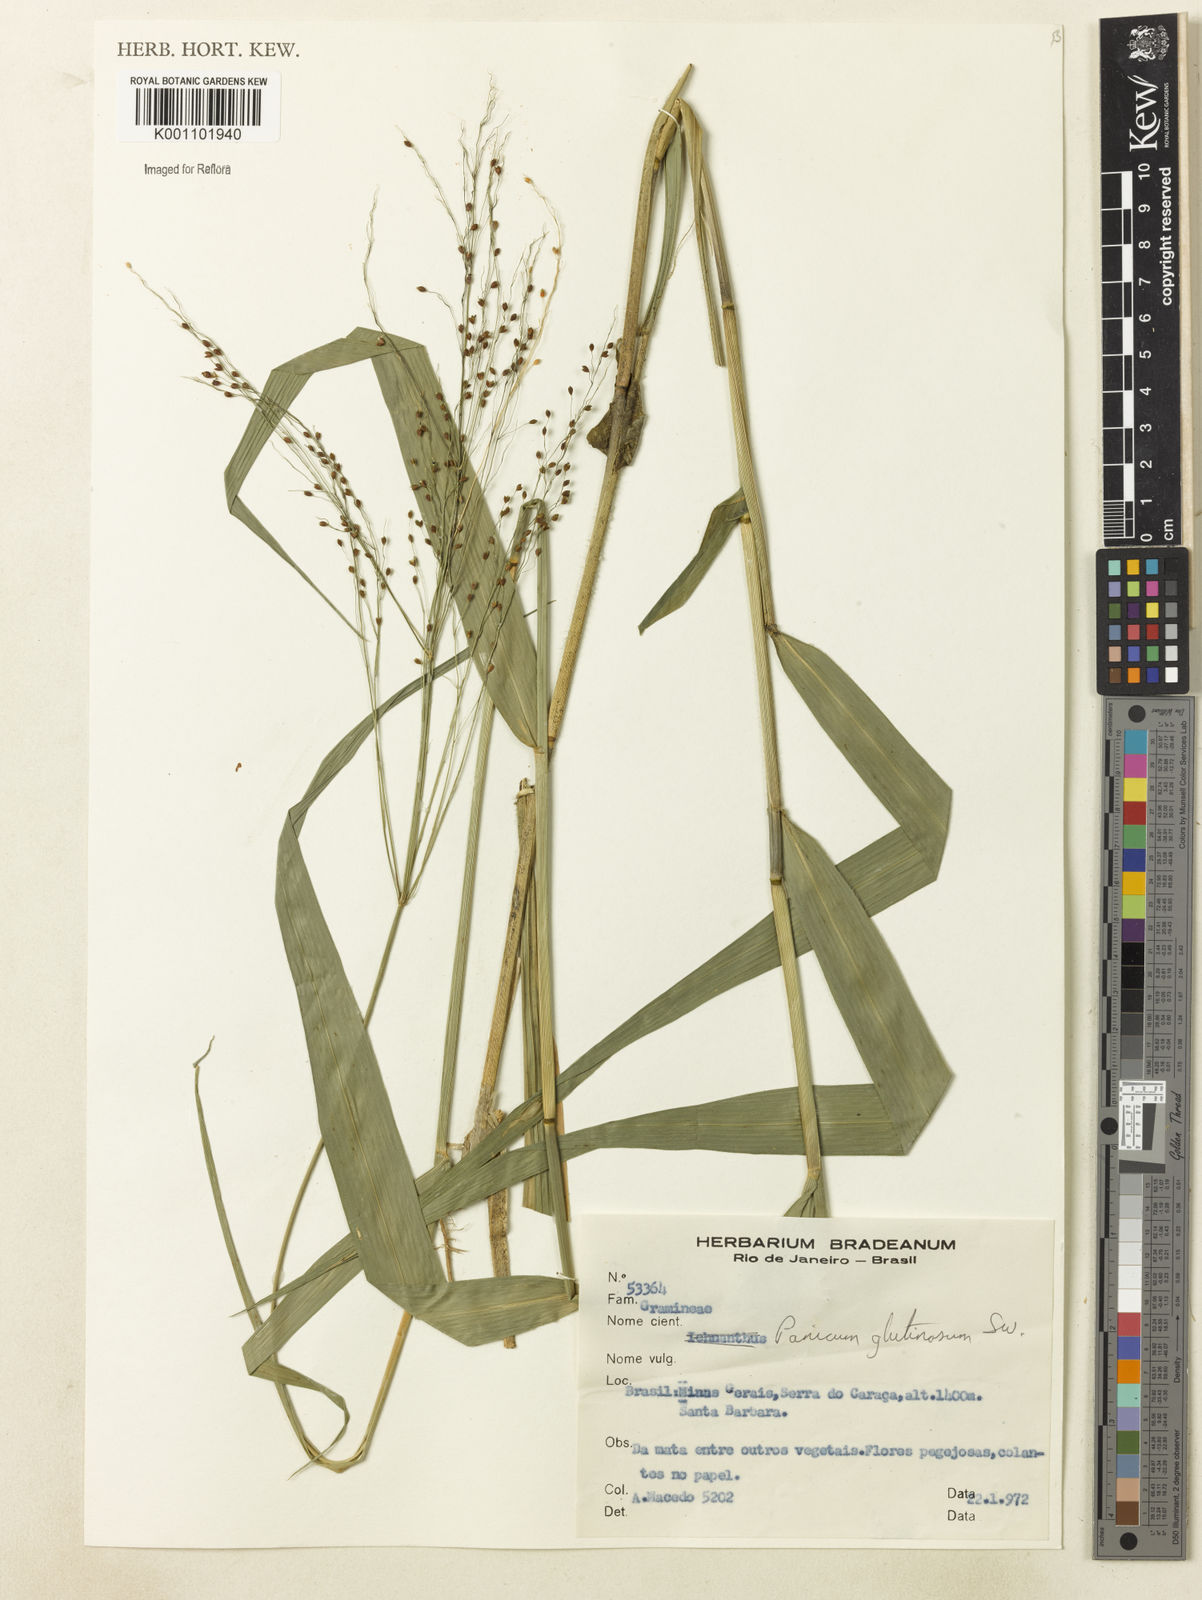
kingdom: Plantae
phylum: Tracheophyta
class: Liliopsida
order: Poales
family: Poaceae
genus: Homolepis
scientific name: Homolepis glutinosa
